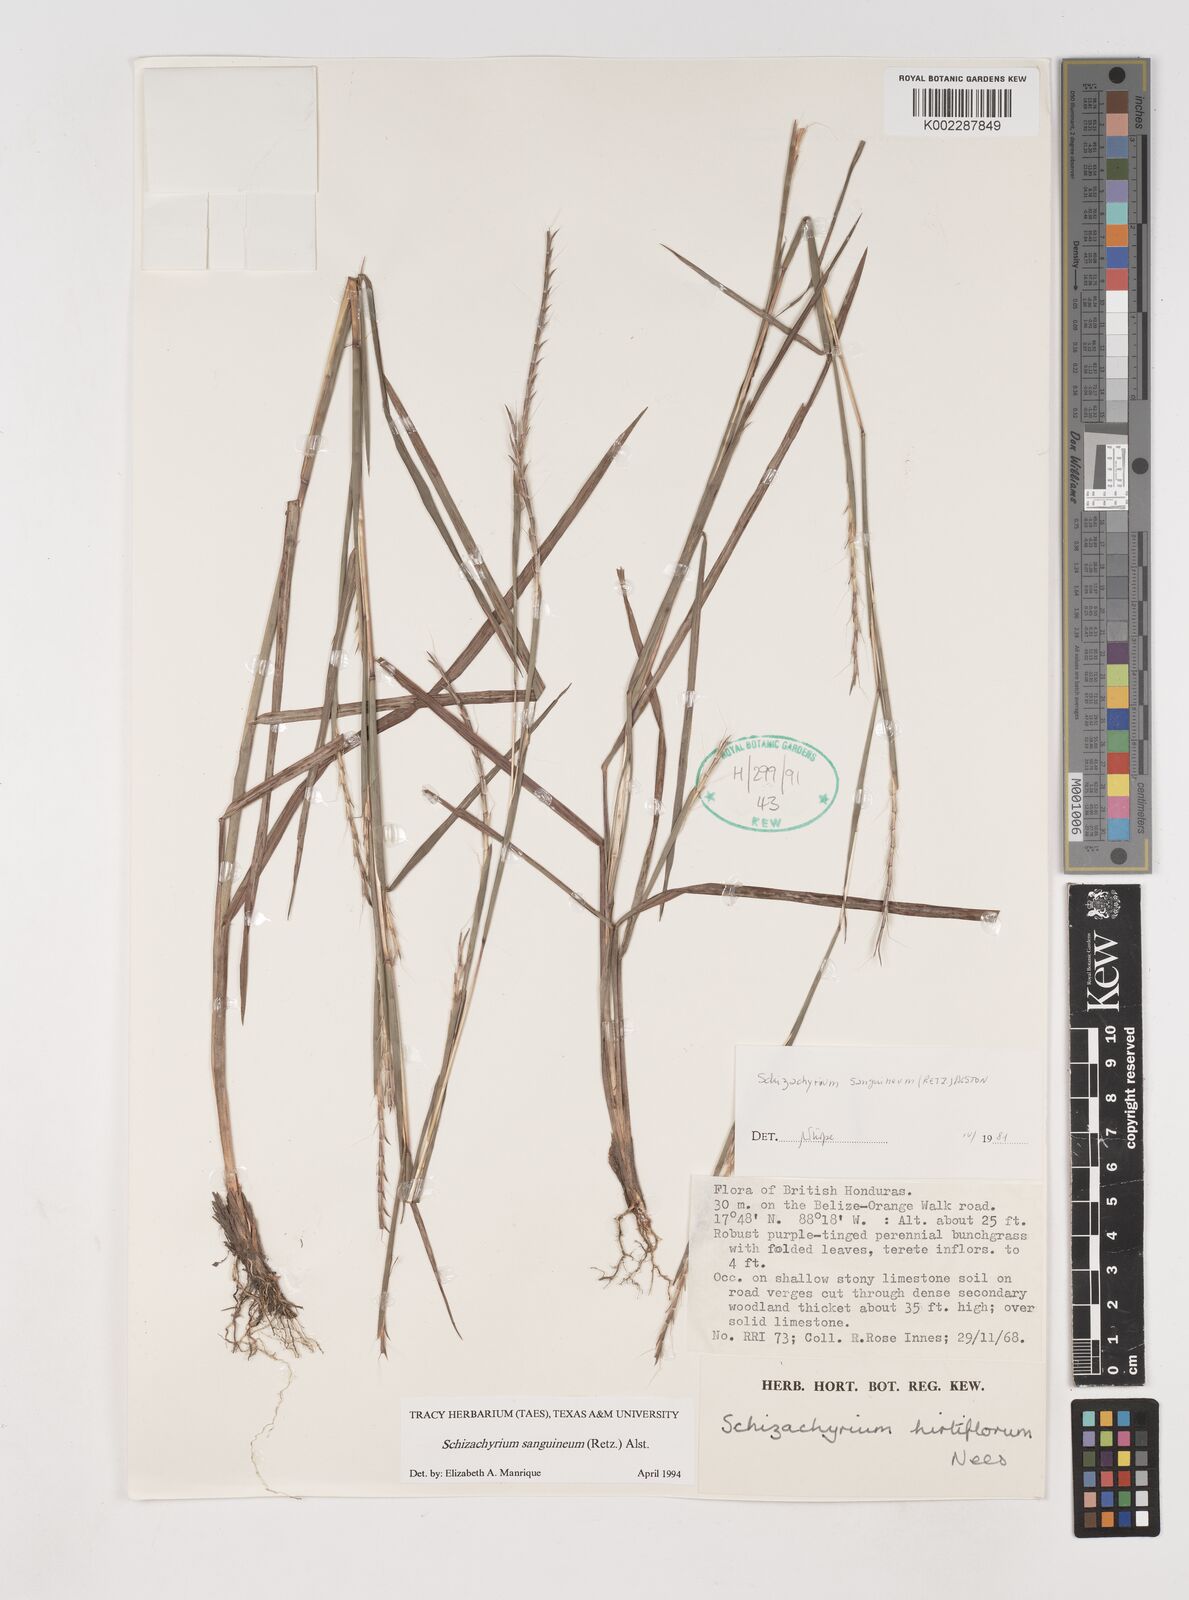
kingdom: Plantae
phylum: Tracheophyta
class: Liliopsida
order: Poales
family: Poaceae
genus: Schizachyrium
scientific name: Schizachyrium sanguineum
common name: Crimson bluestem
